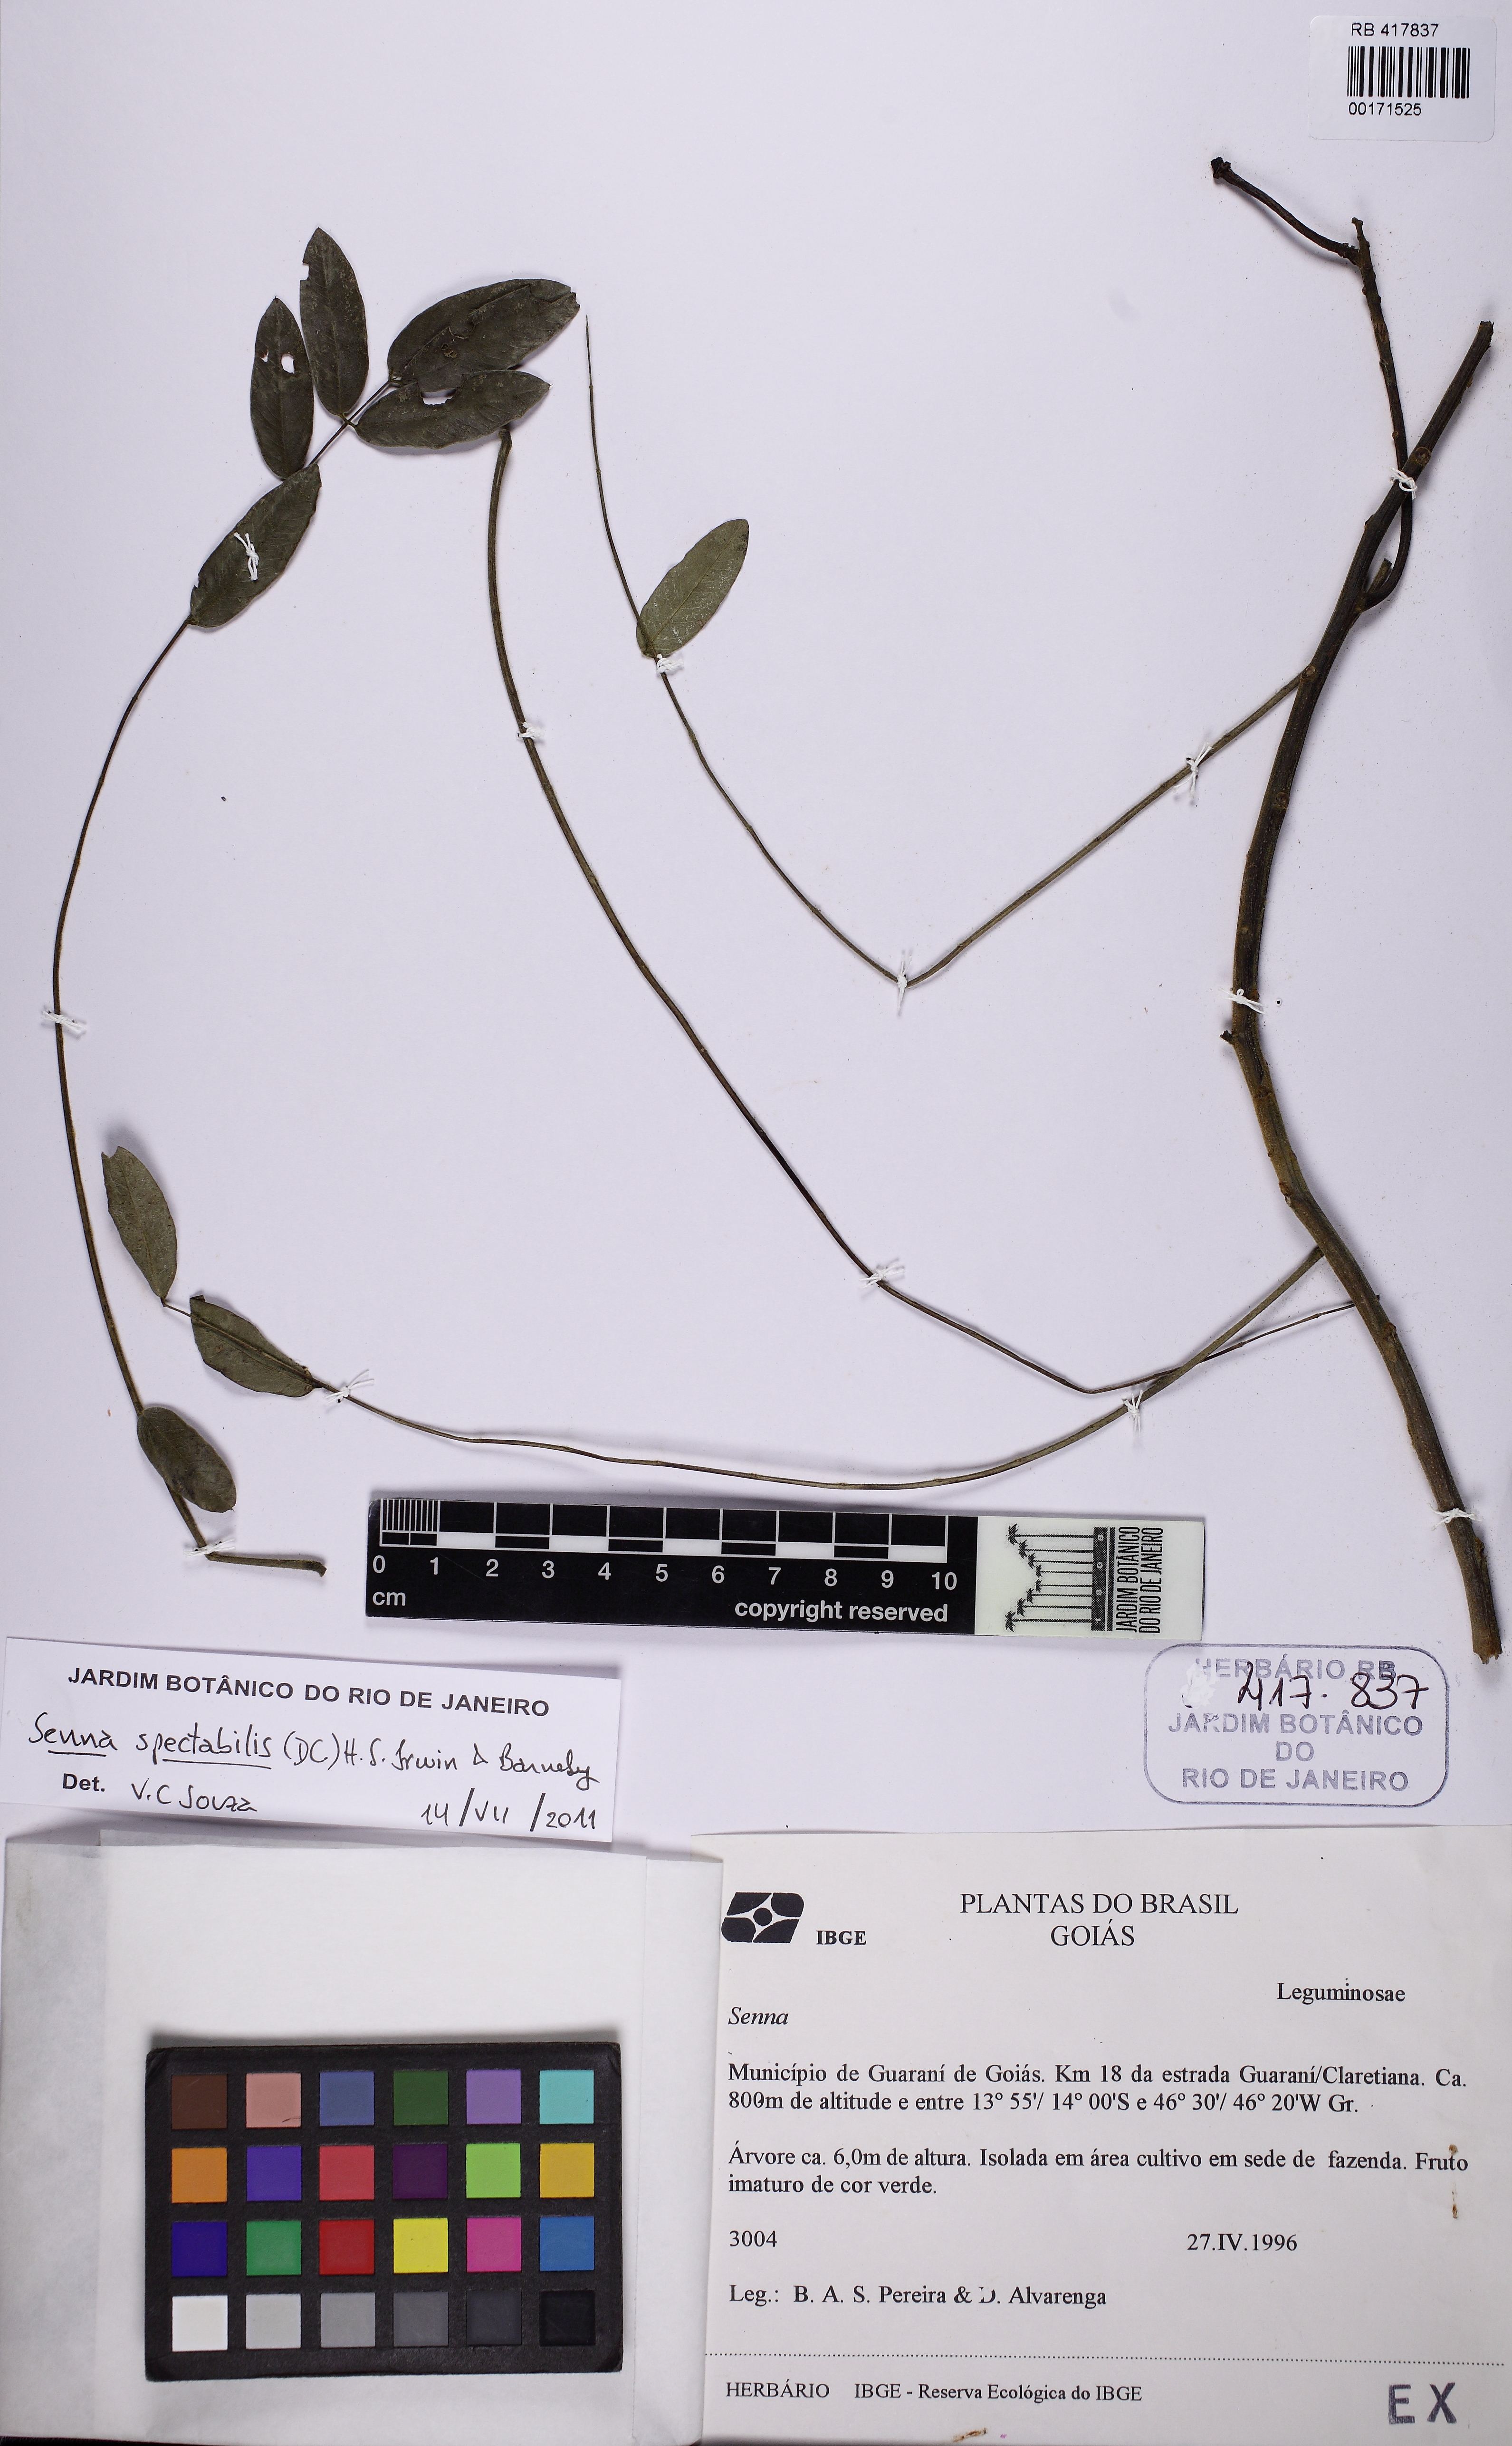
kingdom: Plantae
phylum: Tracheophyta
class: Magnoliopsida
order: Fabales
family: Fabaceae
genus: Senna
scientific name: Senna spectabilis
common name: Casia amarilla
